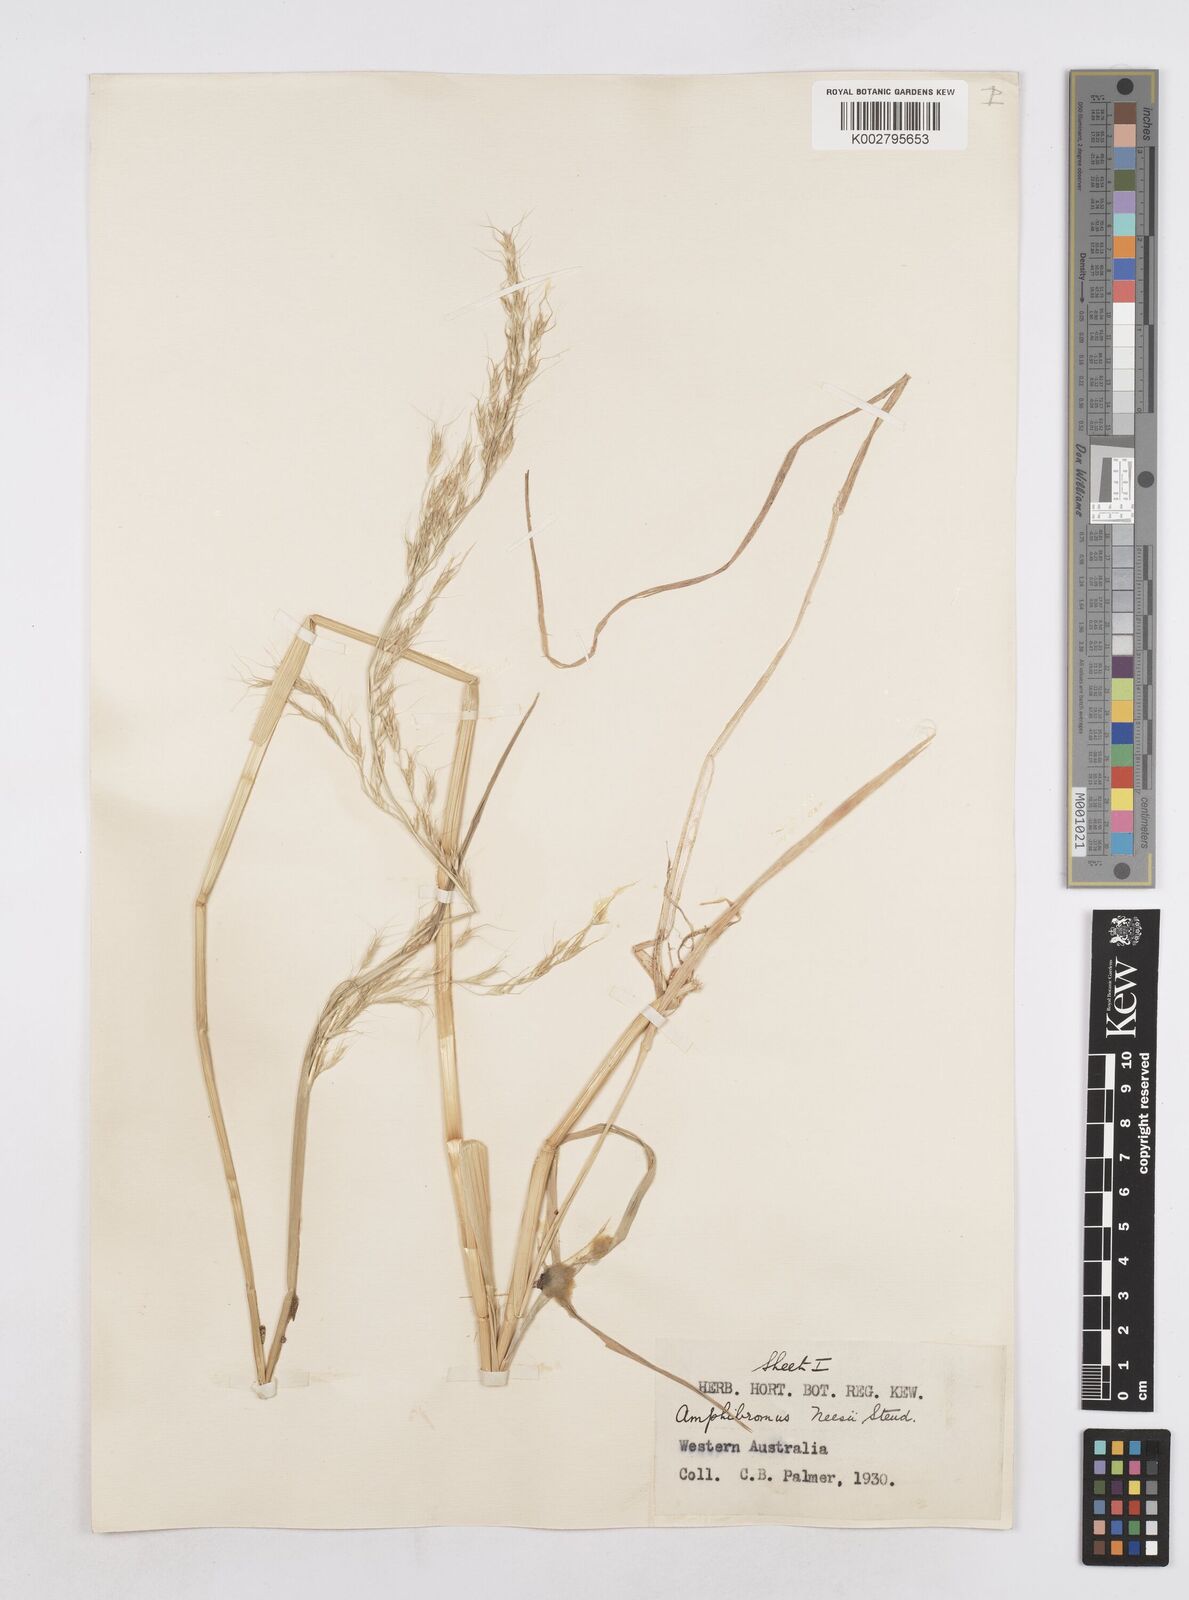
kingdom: Plantae
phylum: Tracheophyta
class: Liliopsida
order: Poales
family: Poaceae
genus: Amphibromus
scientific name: Amphibromus neesii
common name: Australian wallaby grass
